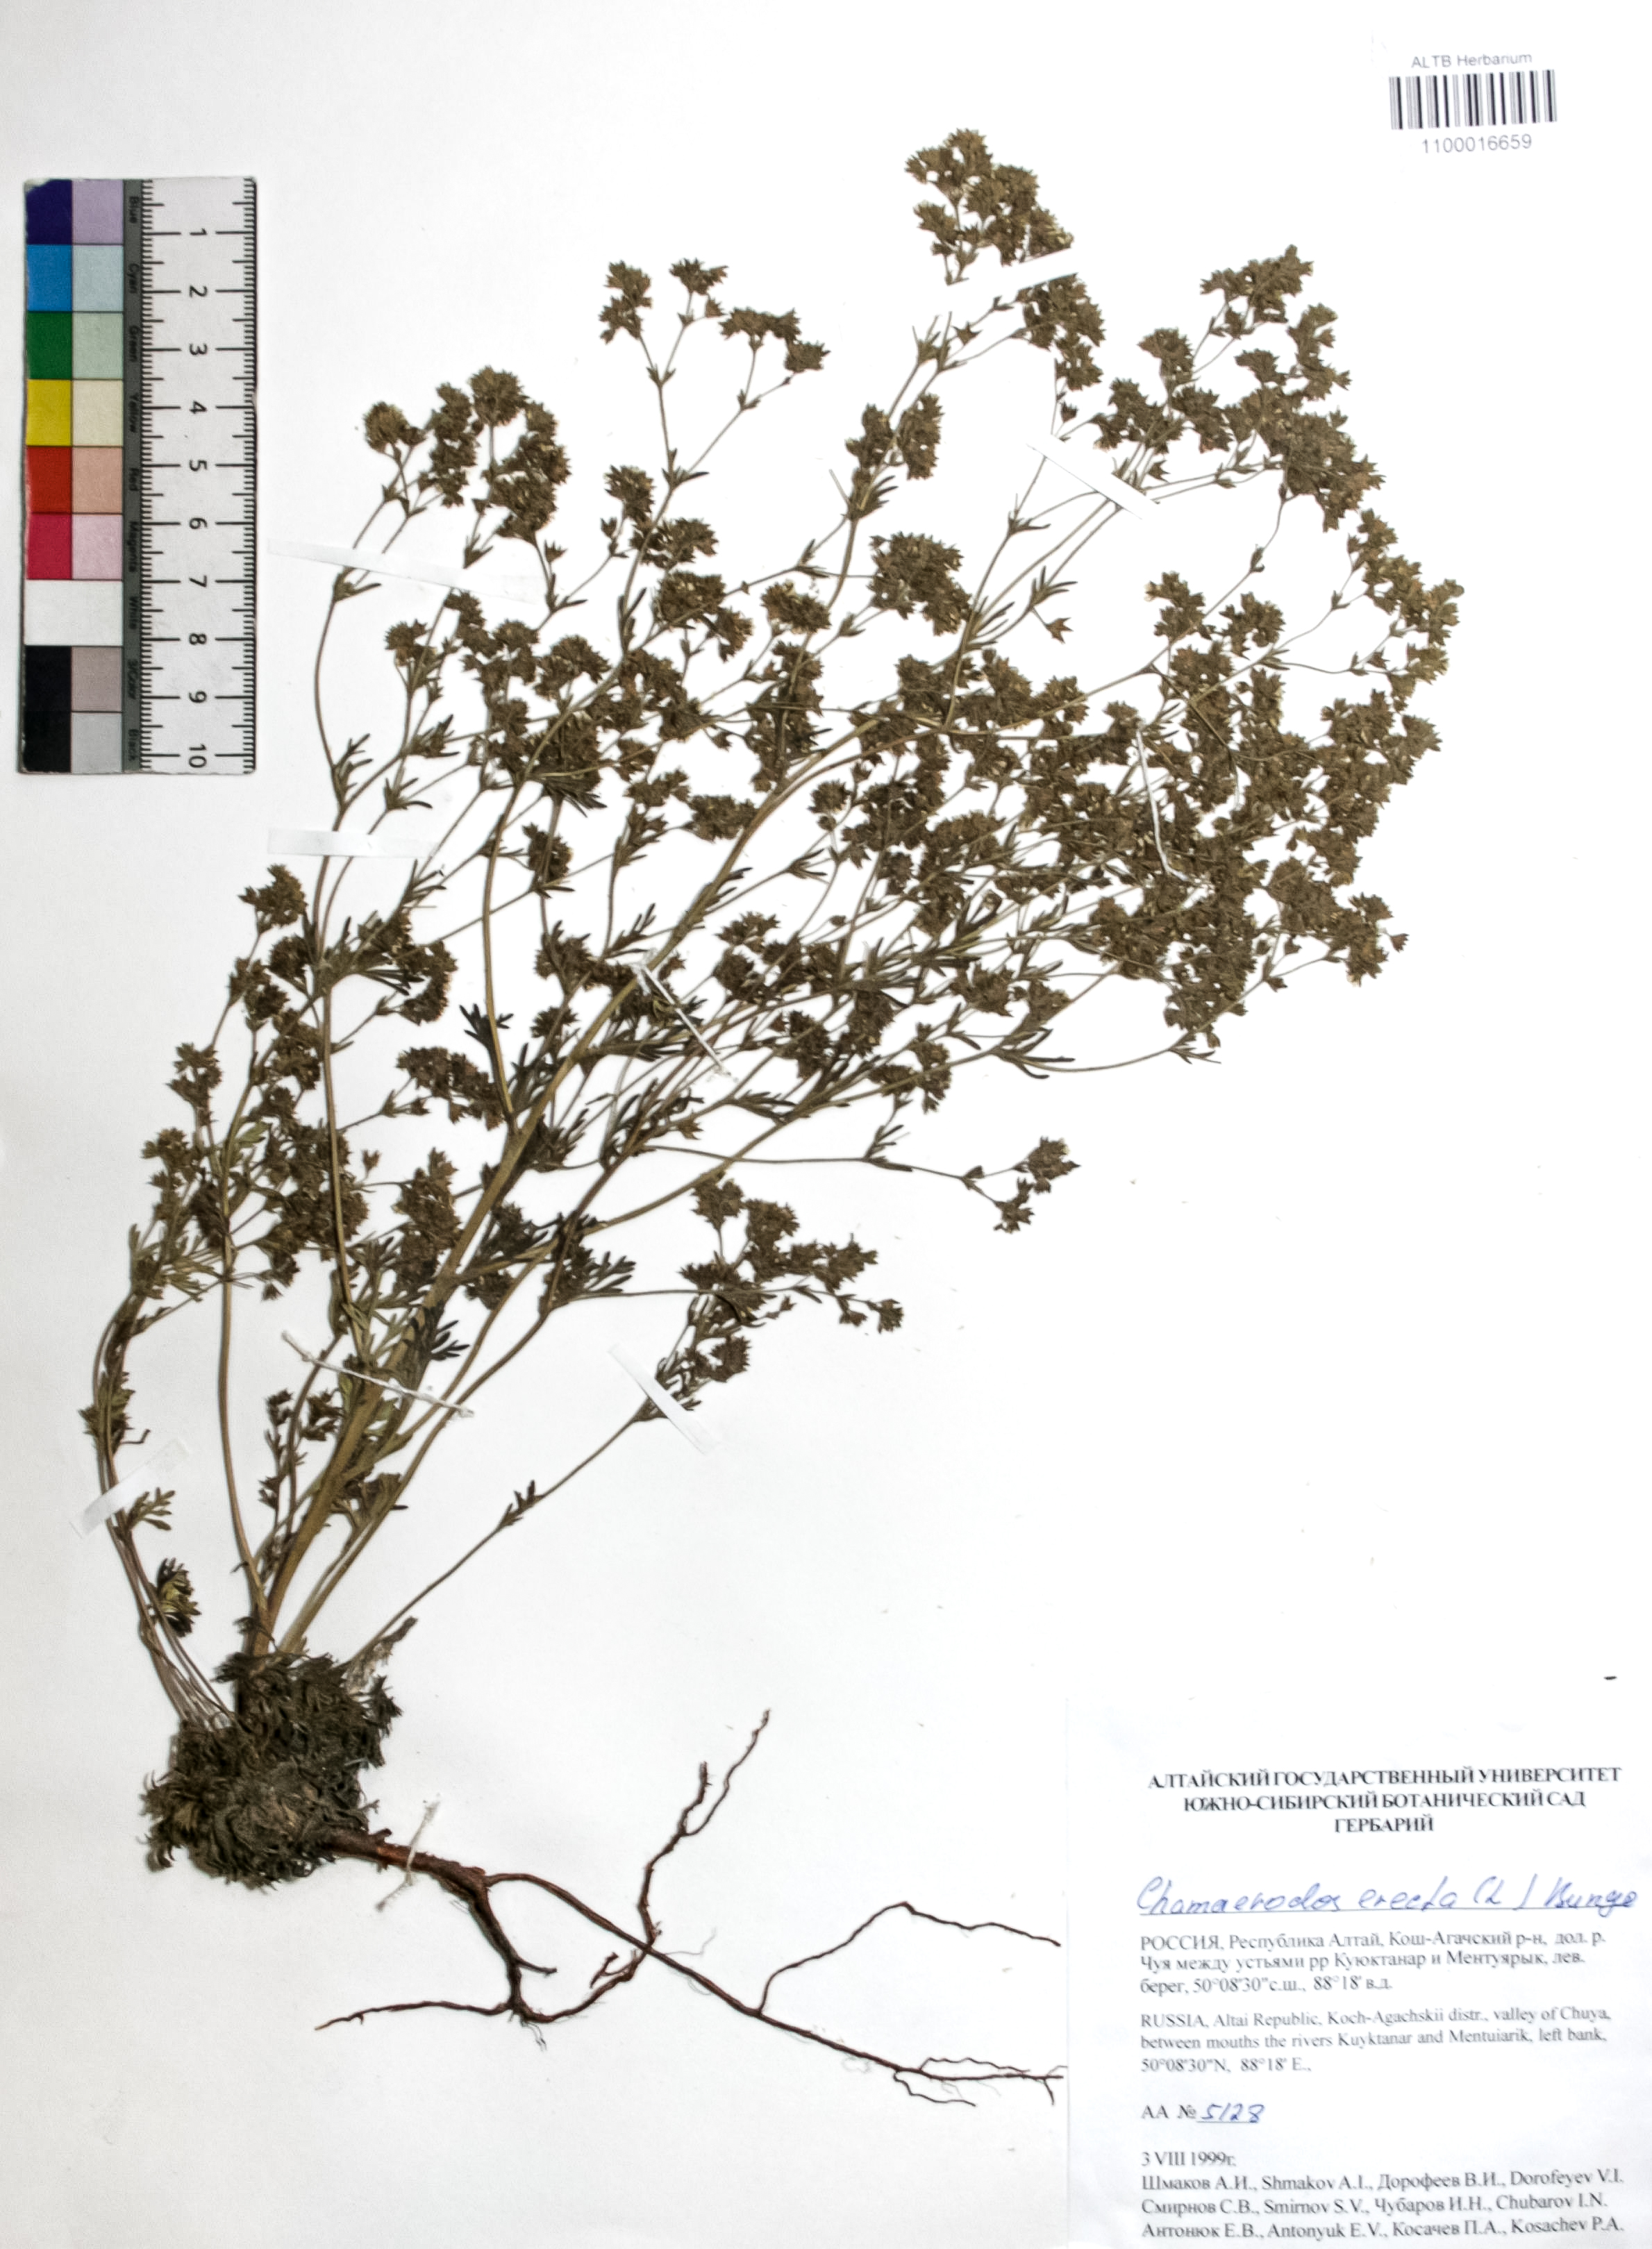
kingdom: Plantae
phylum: Tracheophyta
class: Magnoliopsida
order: Rosales
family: Rosaceae
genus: Chamaerhodos
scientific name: Chamaerhodos erecta
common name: American chamaerhodos
